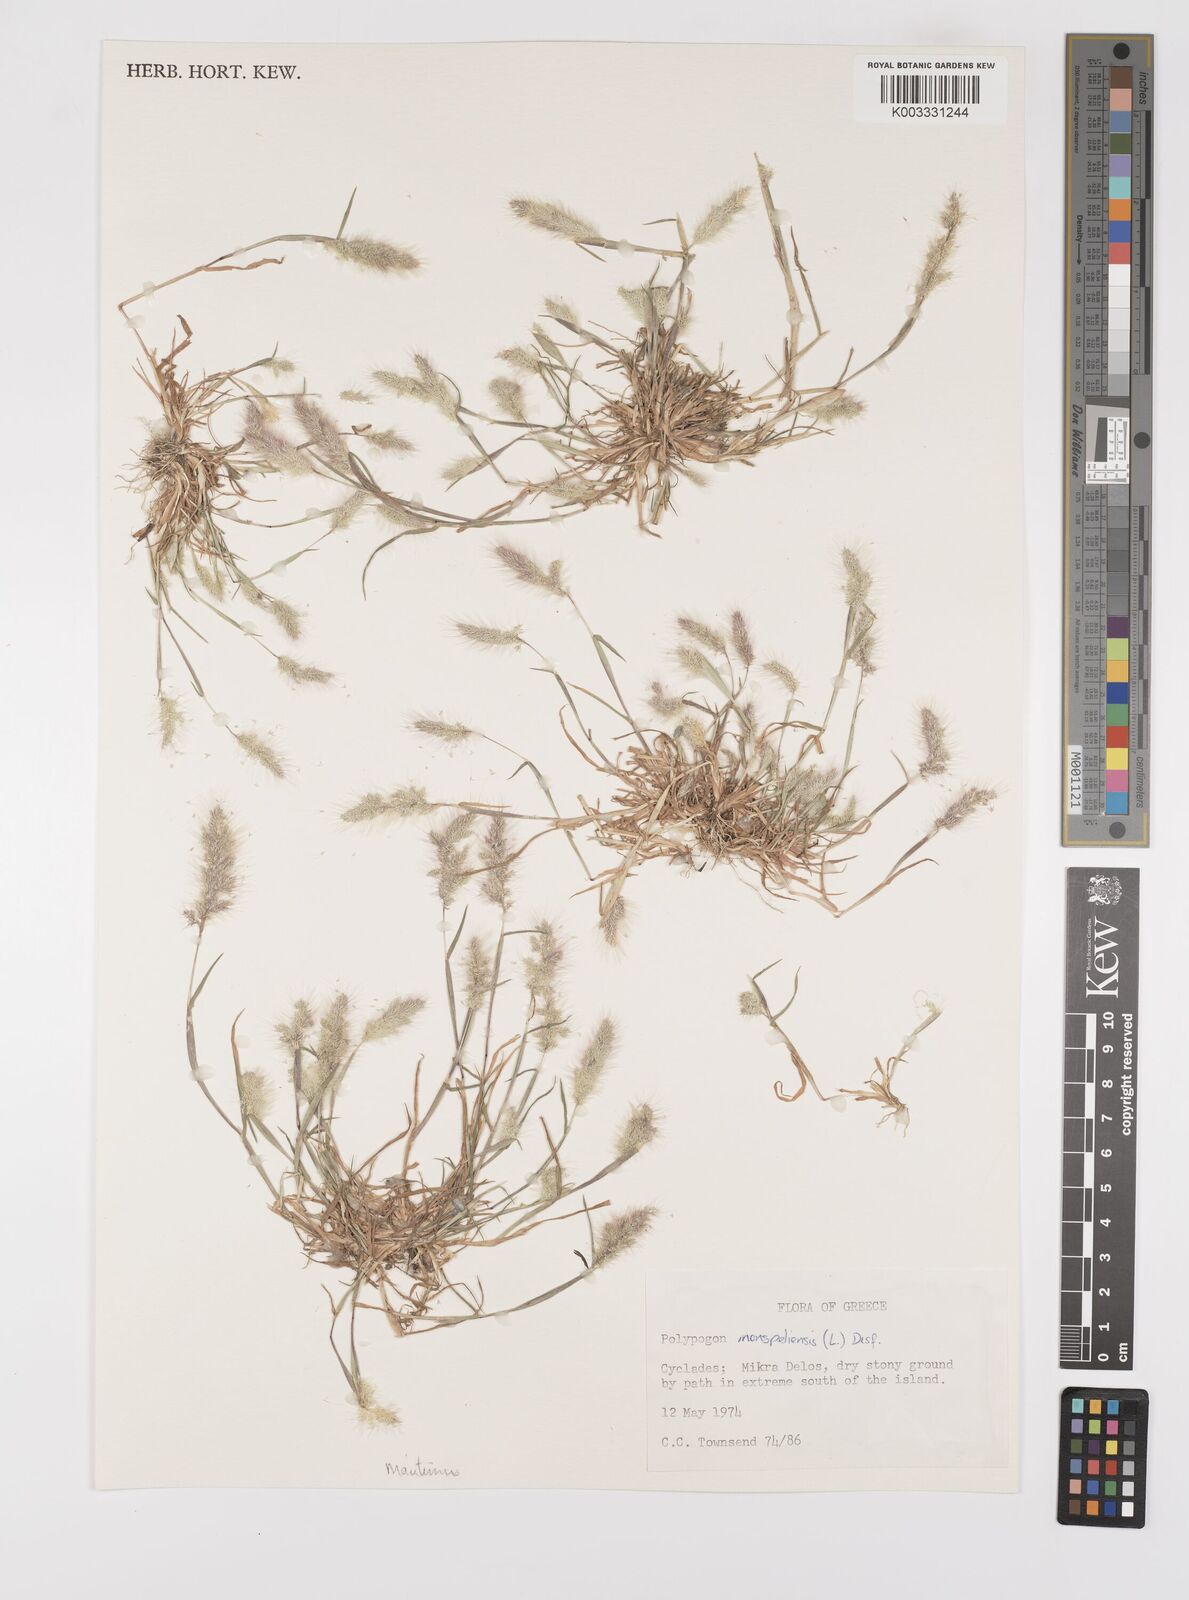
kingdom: Plantae
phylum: Tracheophyta
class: Liliopsida
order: Poales
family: Poaceae
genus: Polypogon
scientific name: Polypogon maritimus
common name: Mediterranean rabbitsfoot grass
